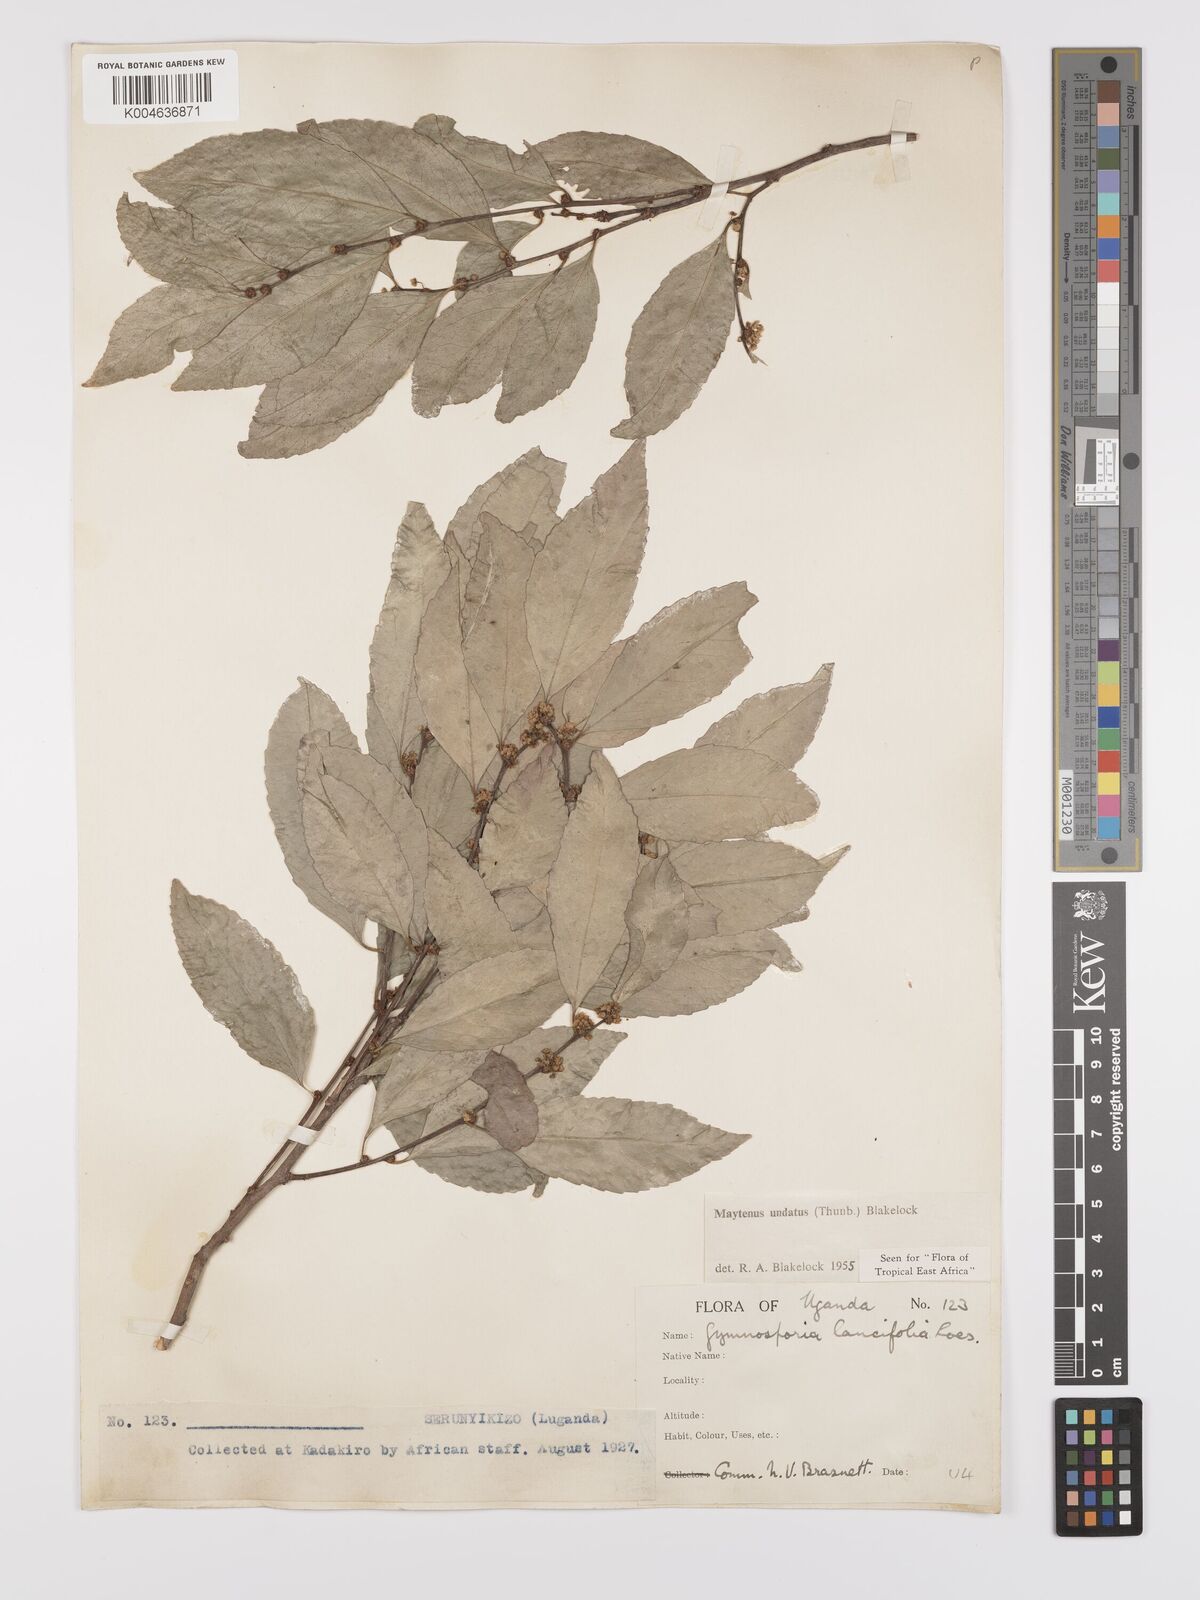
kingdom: Plantae
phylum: Tracheophyta
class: Magnoliopsida
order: Celastrales
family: Celastraceae
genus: Gymnosporia
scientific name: Gymnosporia undata
